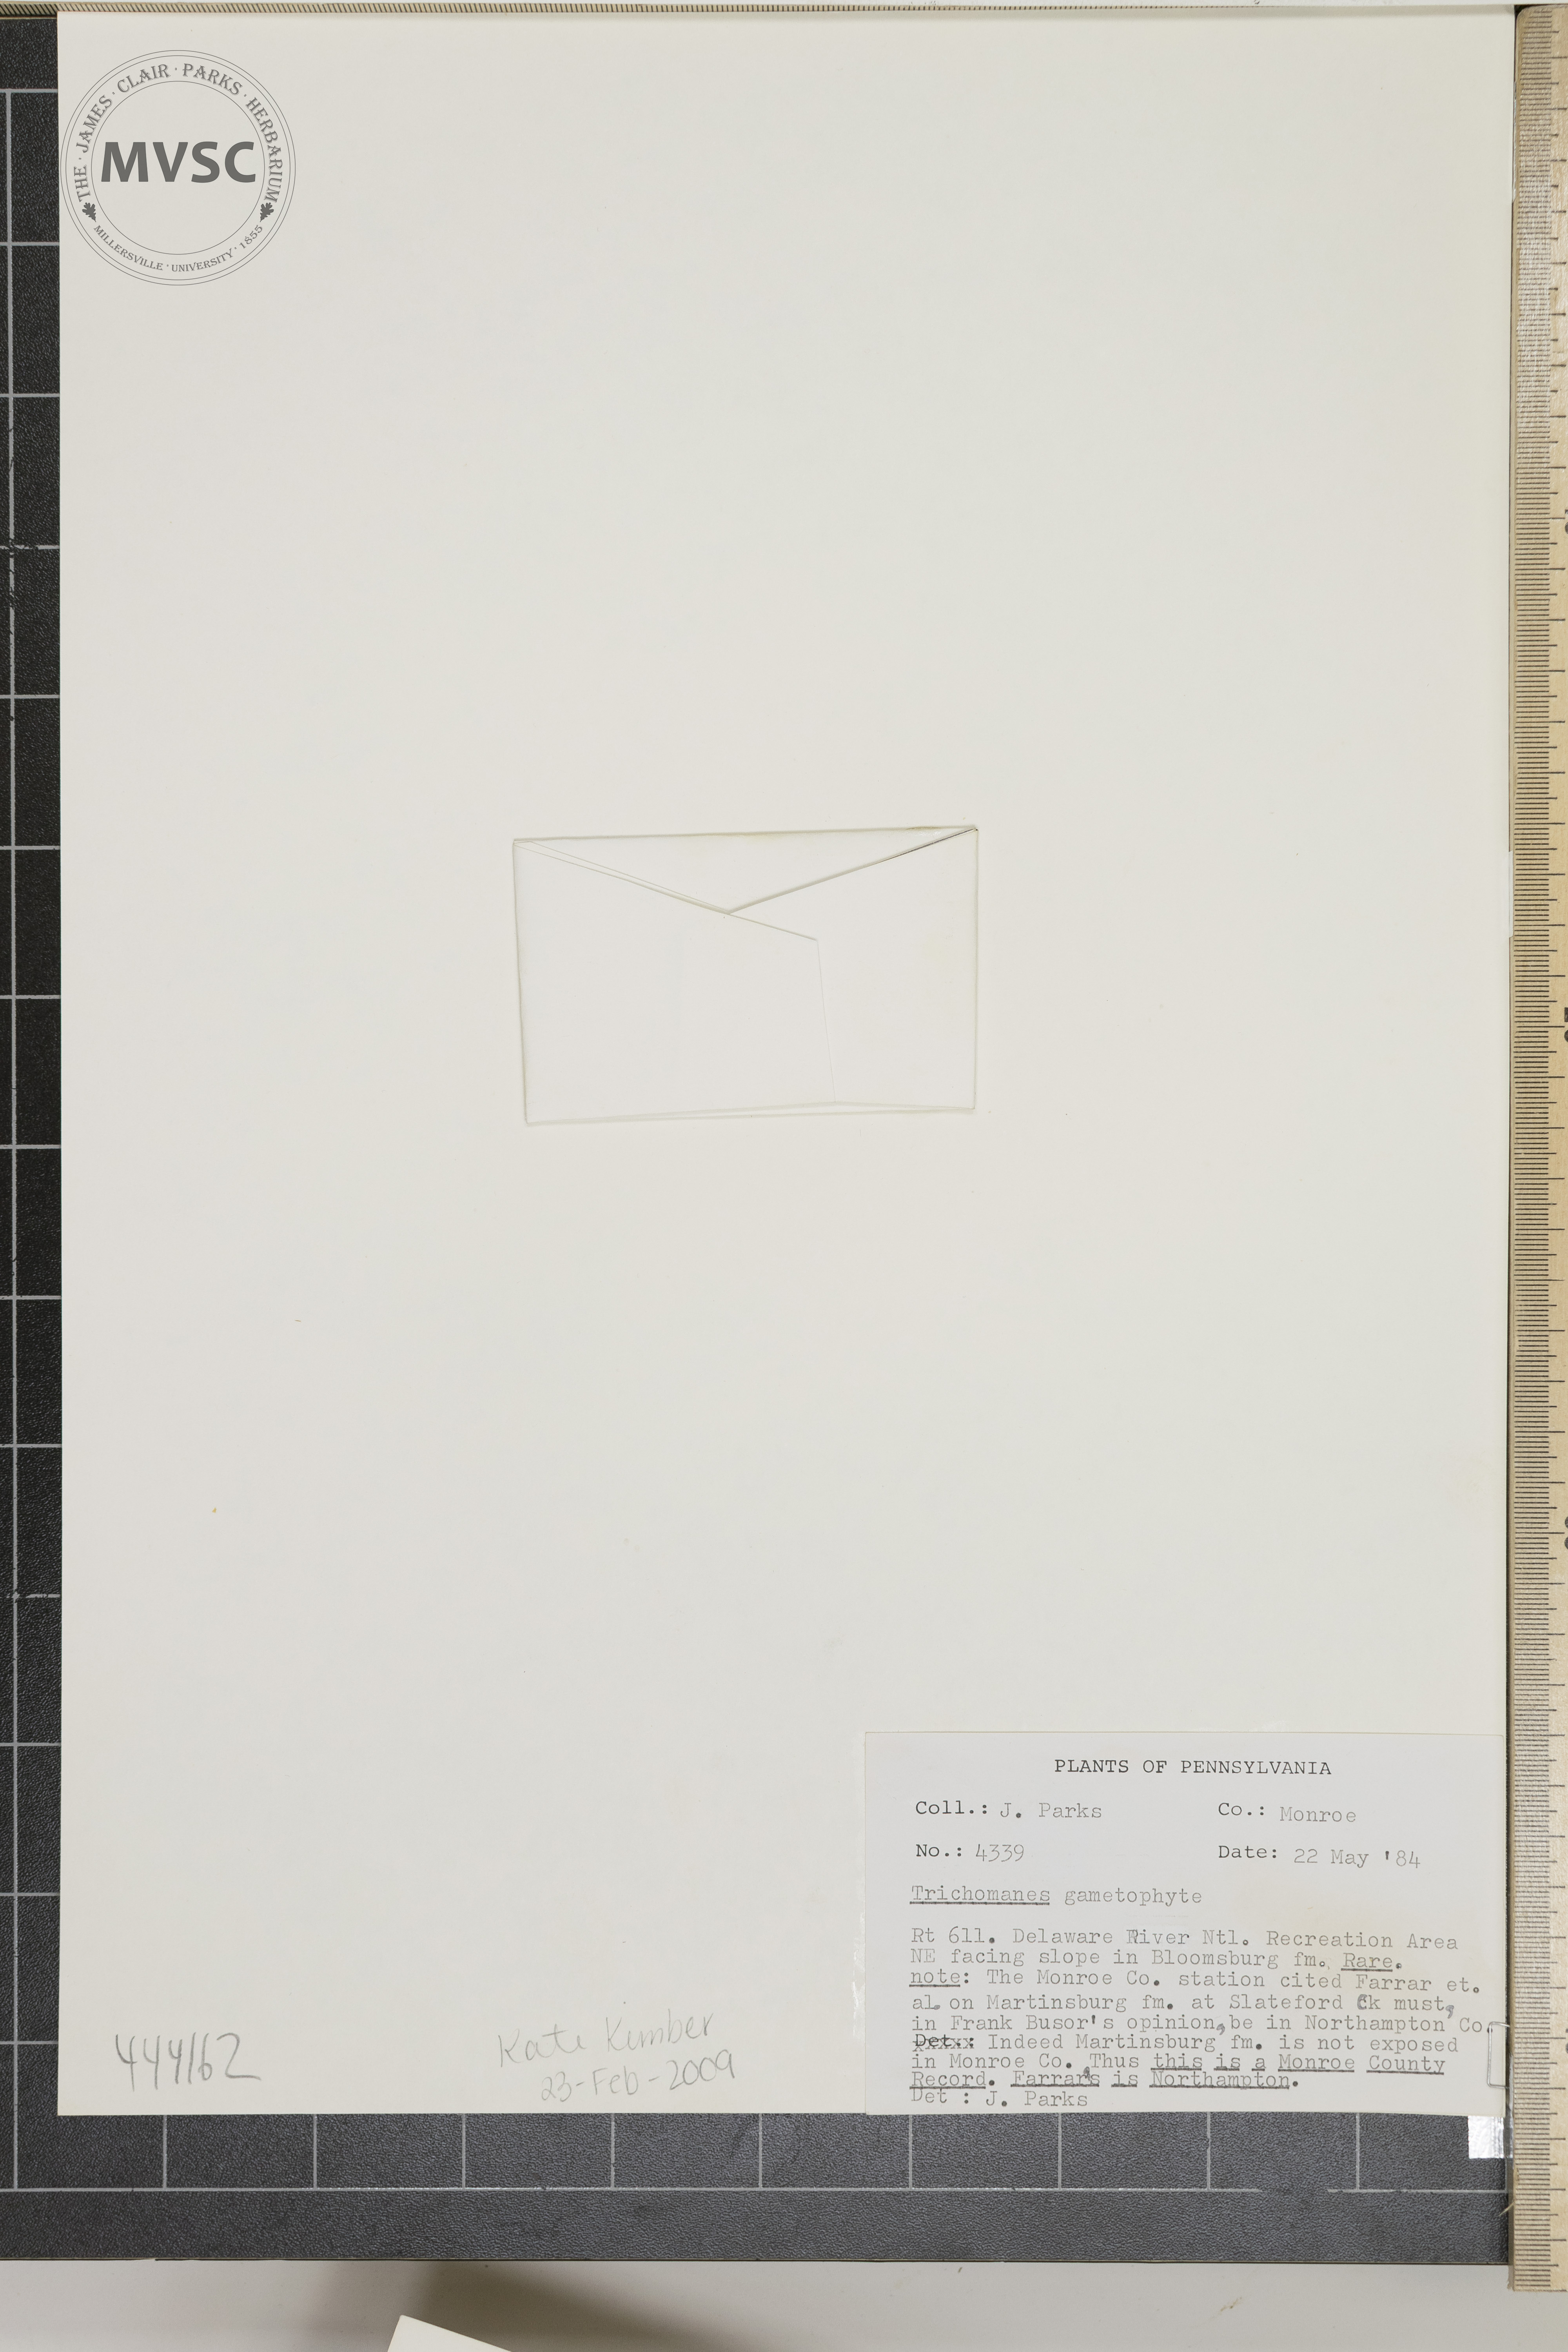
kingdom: Plantae
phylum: Tracheophyta
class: Polypodiopsida
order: Hymenophyllales
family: Hymenophyllaceae
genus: Trichomanes
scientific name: Trichomanes
